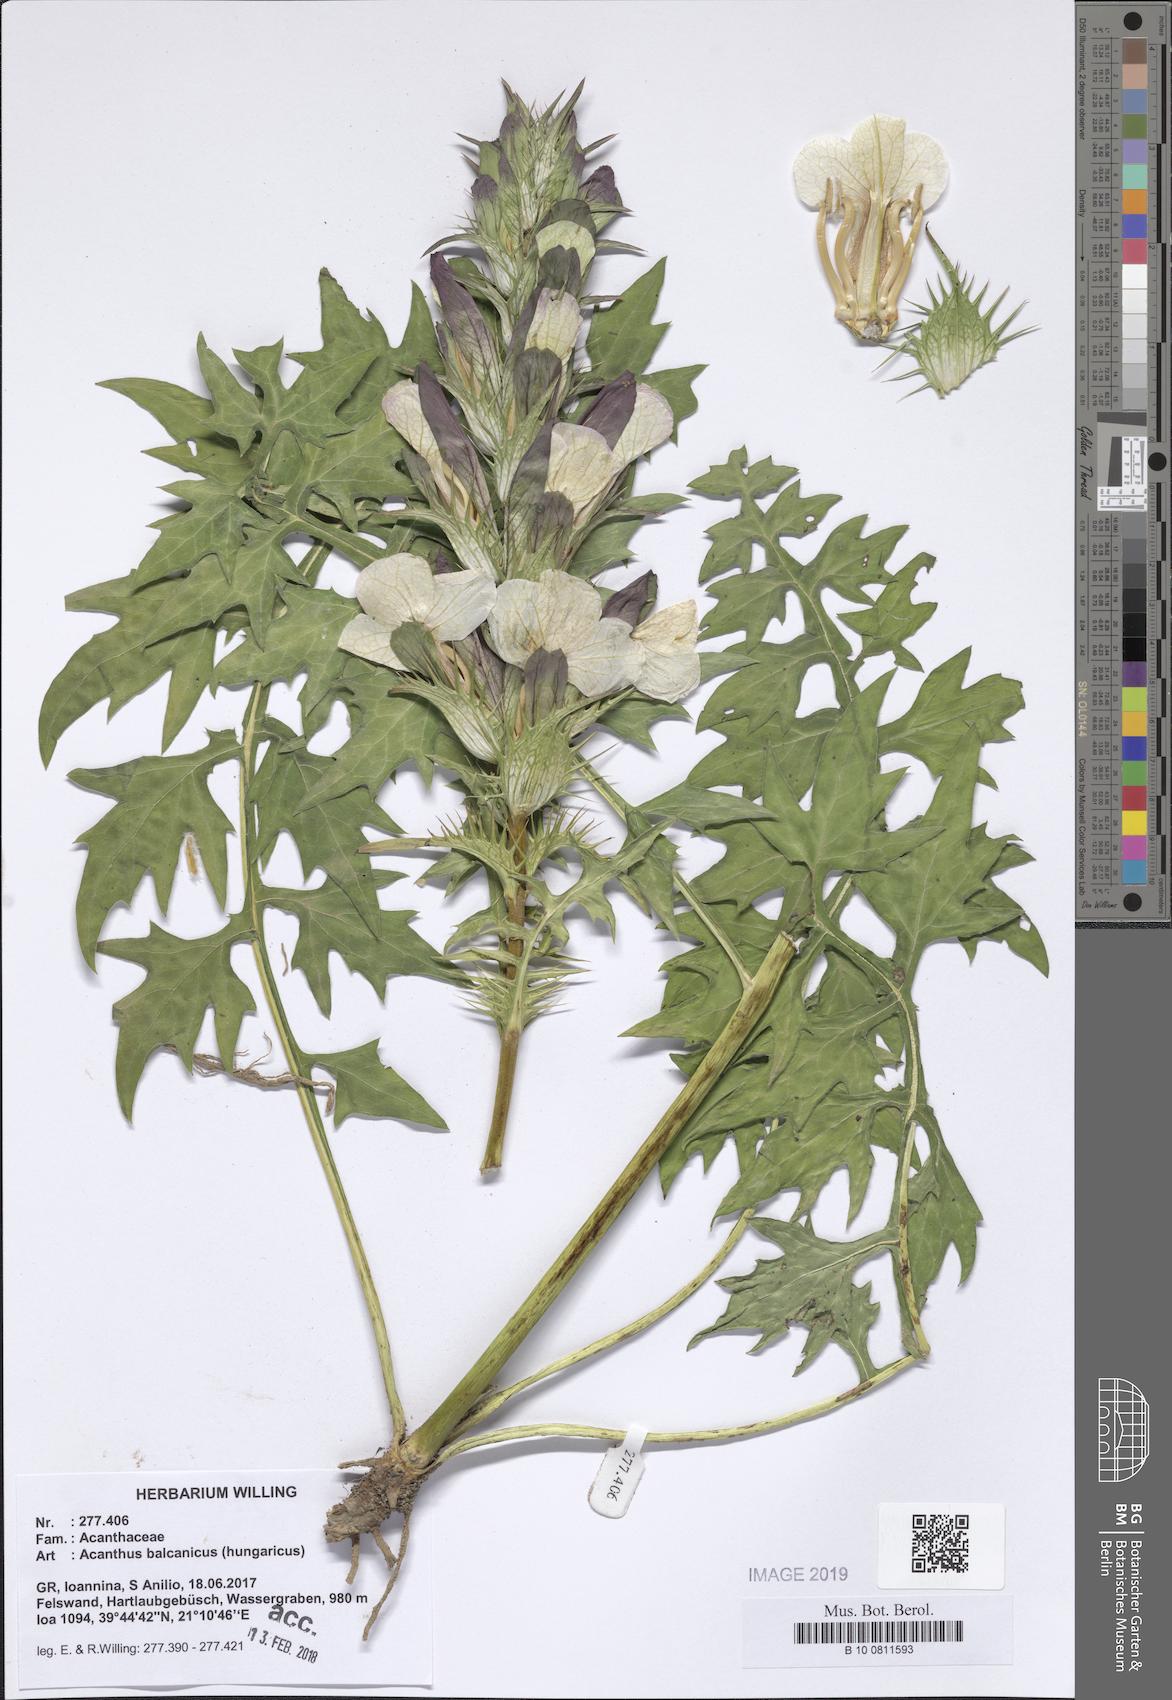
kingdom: Plantae
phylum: Tracheophyta
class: Magnoliopsida
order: Lamiales
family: Acanthaceae
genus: Acanthus
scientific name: Acanthus hungaricus
